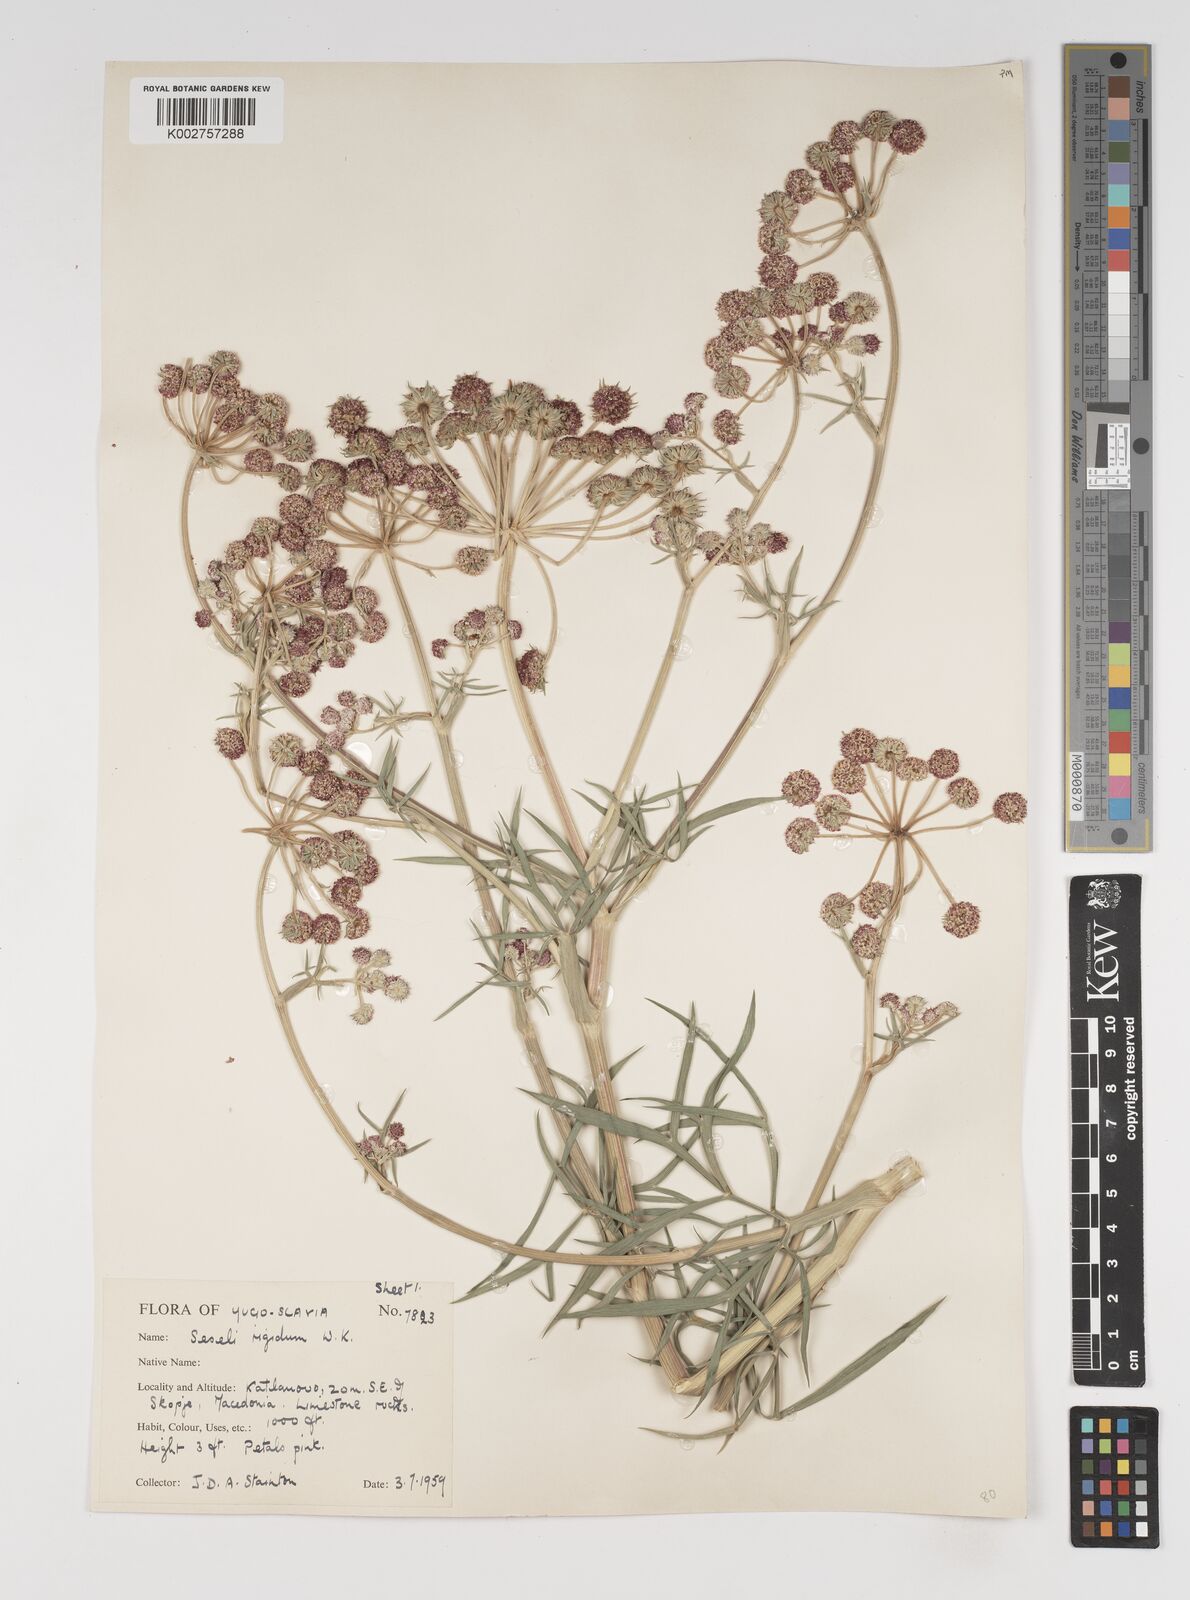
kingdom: Plantae
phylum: Tracheophyta
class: Magnoliopsida
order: Apiales
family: Apiaceae
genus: Seseli
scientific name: Seseli rigidum
